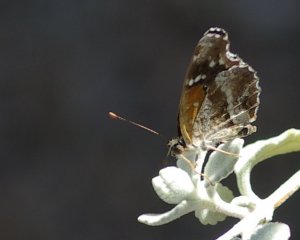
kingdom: Animalia
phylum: Arthropoda
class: Insecta
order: Lepidoptera
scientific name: Lepidoptera
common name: Butterflies
